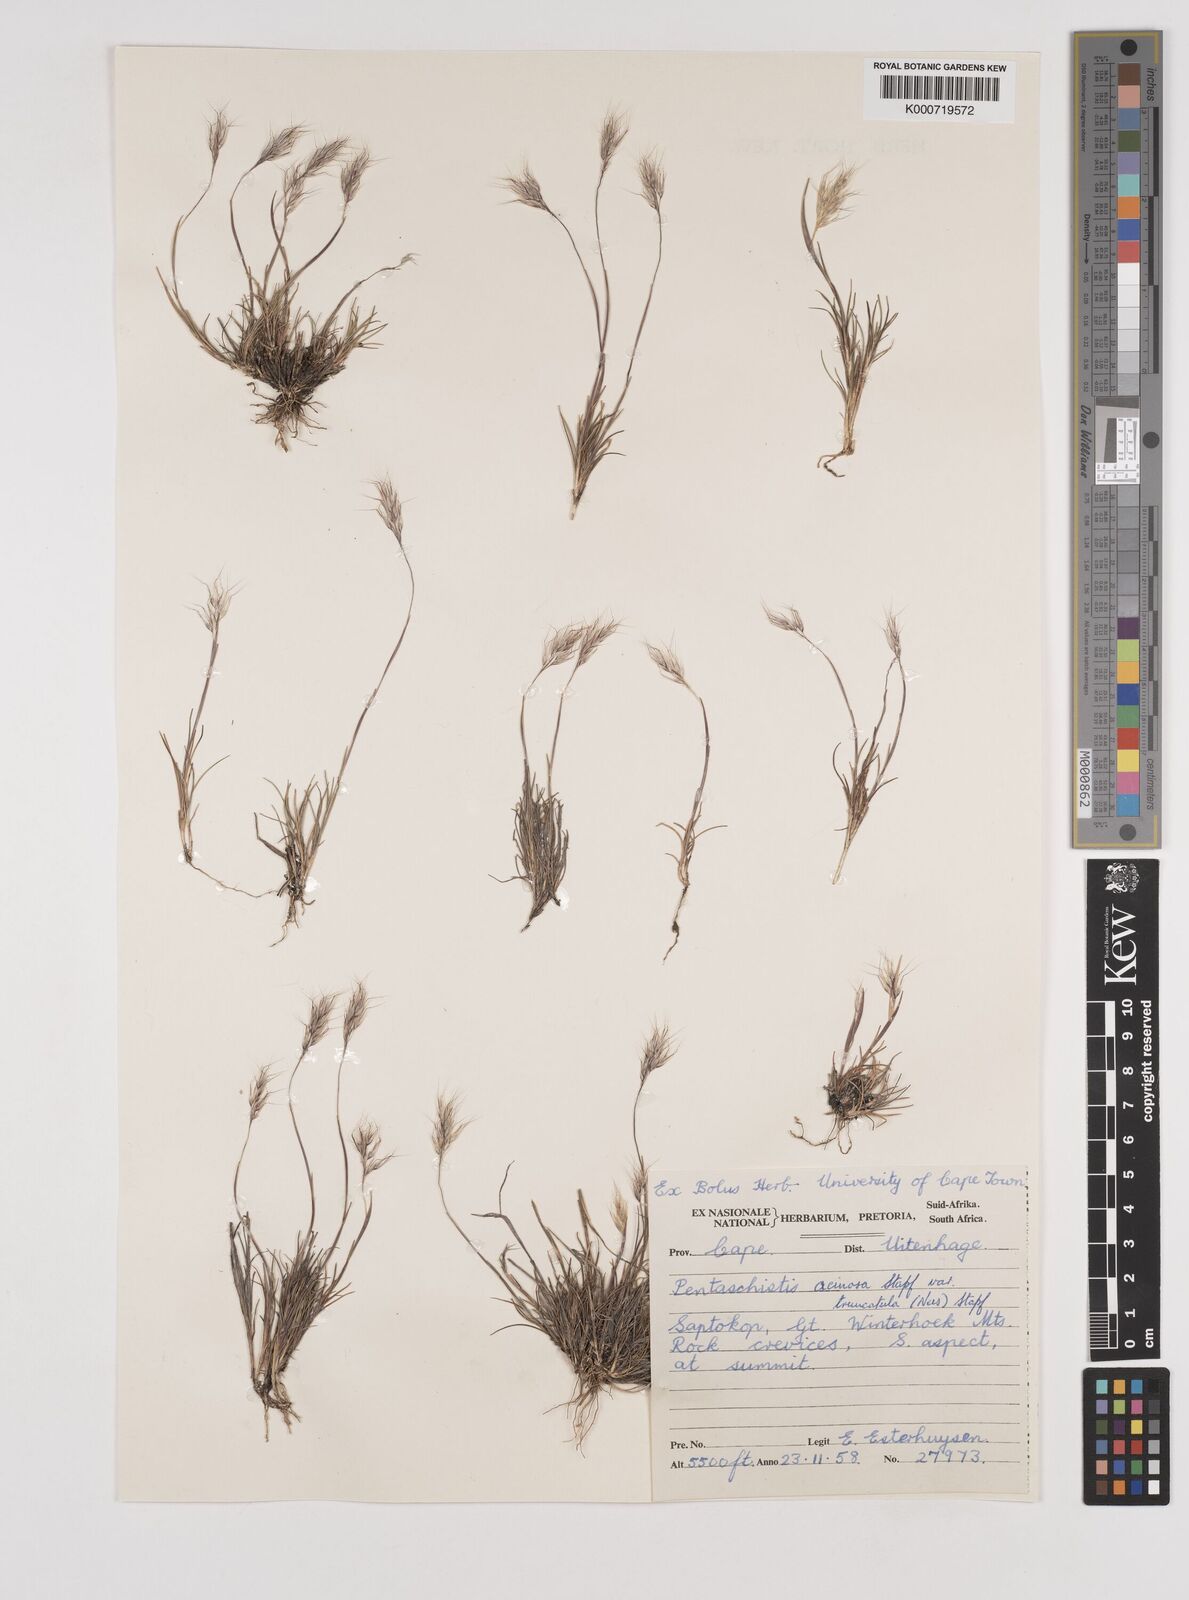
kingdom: Plantae
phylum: Tracheophyta
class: Liliopsida
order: Poales
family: Poaceae
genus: Pentameris
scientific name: Pentameris rigidissima
